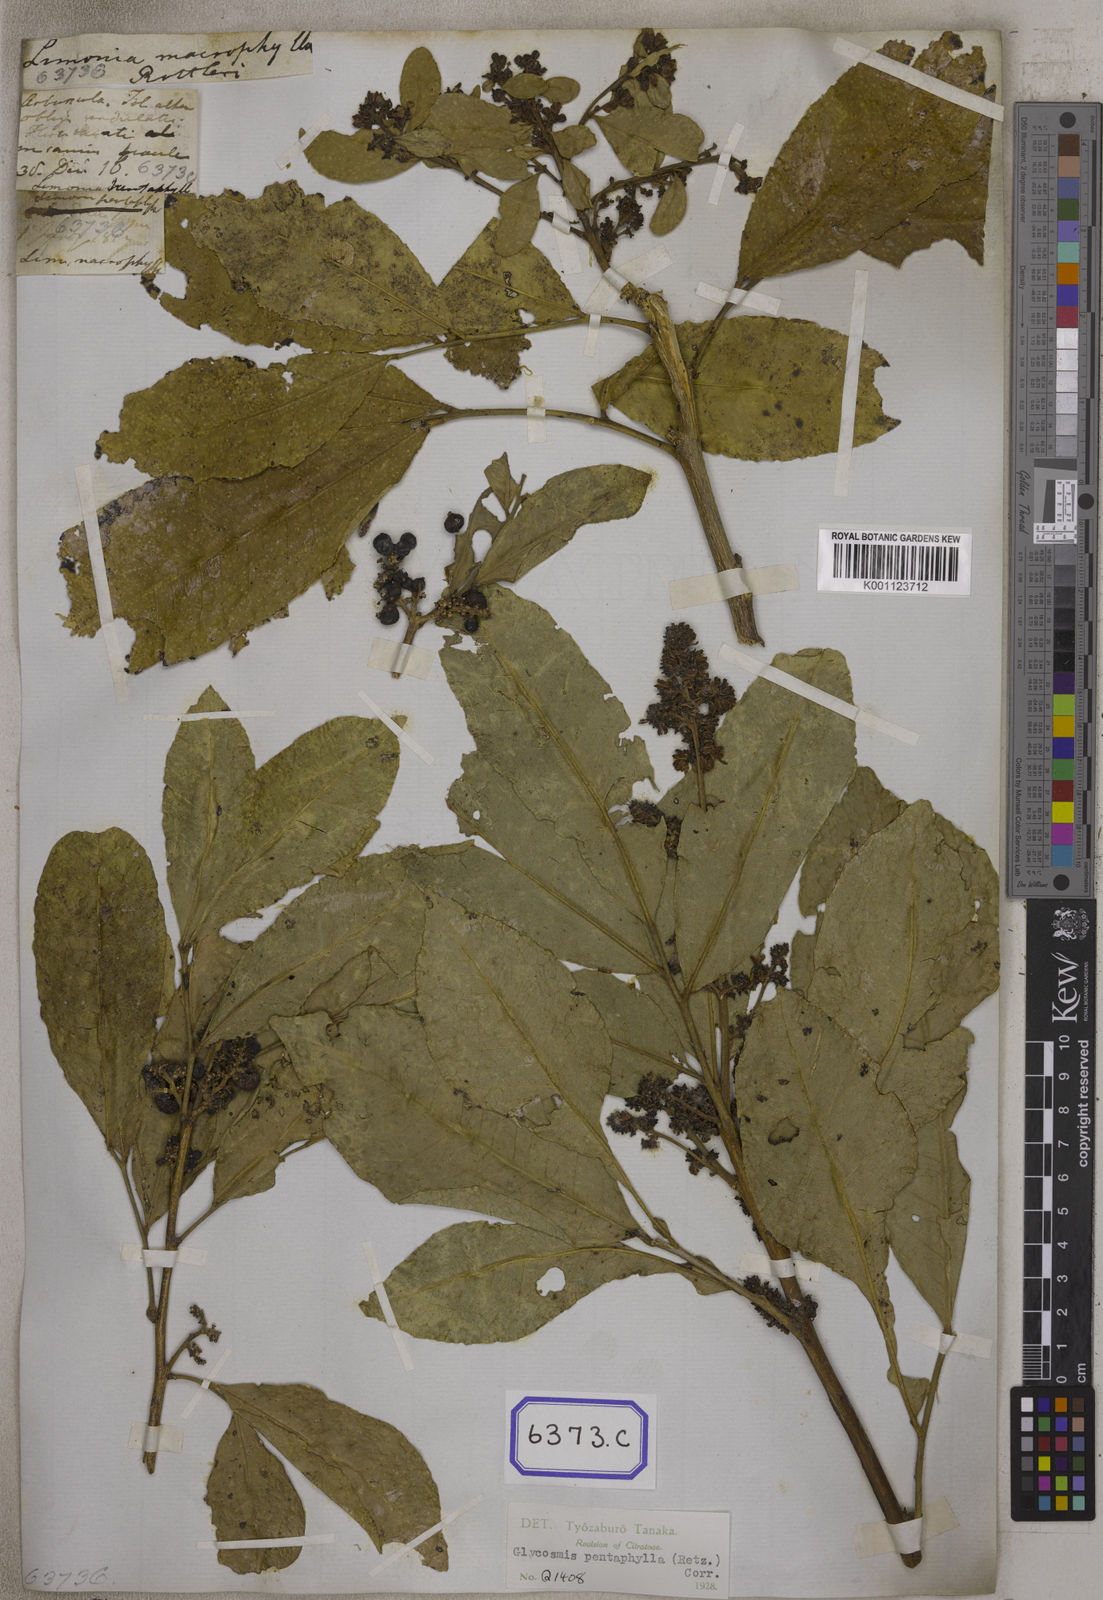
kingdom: Plantae
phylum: Tracheophyta
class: Magnoliopsida
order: Sapindales
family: Rutaceae
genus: Glycosmis
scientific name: Glycosmis pentaphylla
